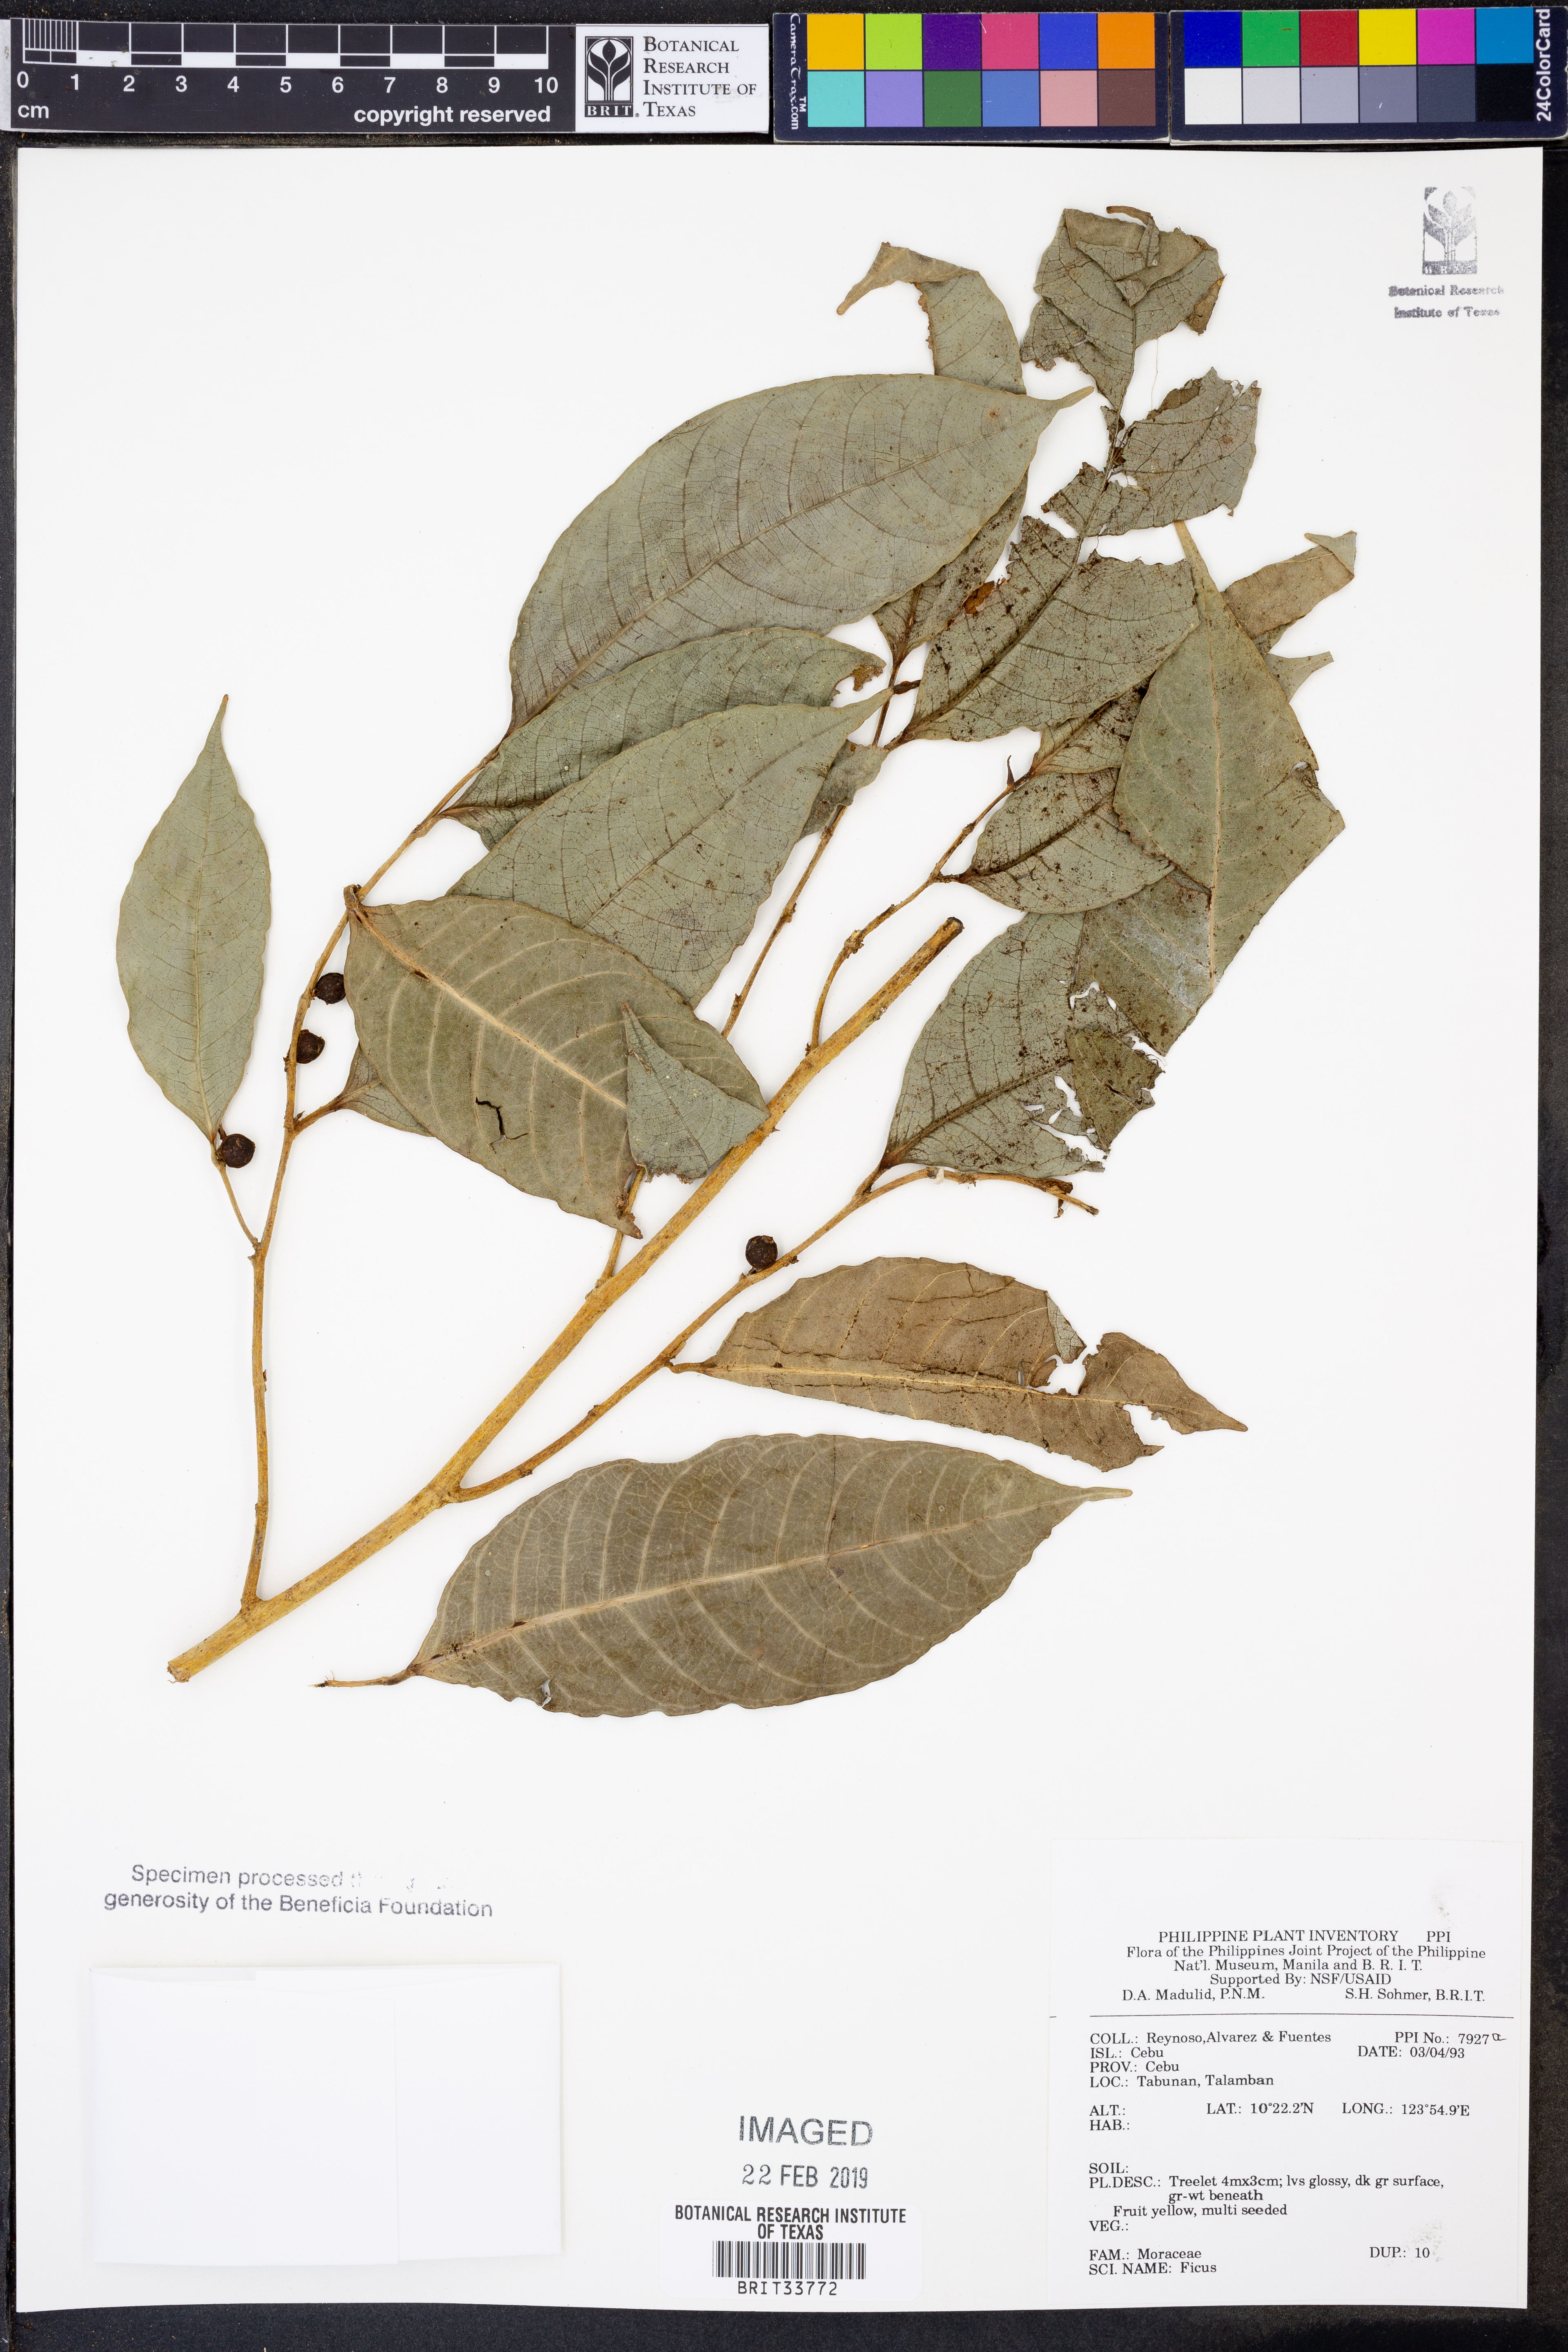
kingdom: Plantae
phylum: Tracheophyta
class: Magnoliopsida
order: Rosales
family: Moraceae
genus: Ficus
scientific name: Ficus
